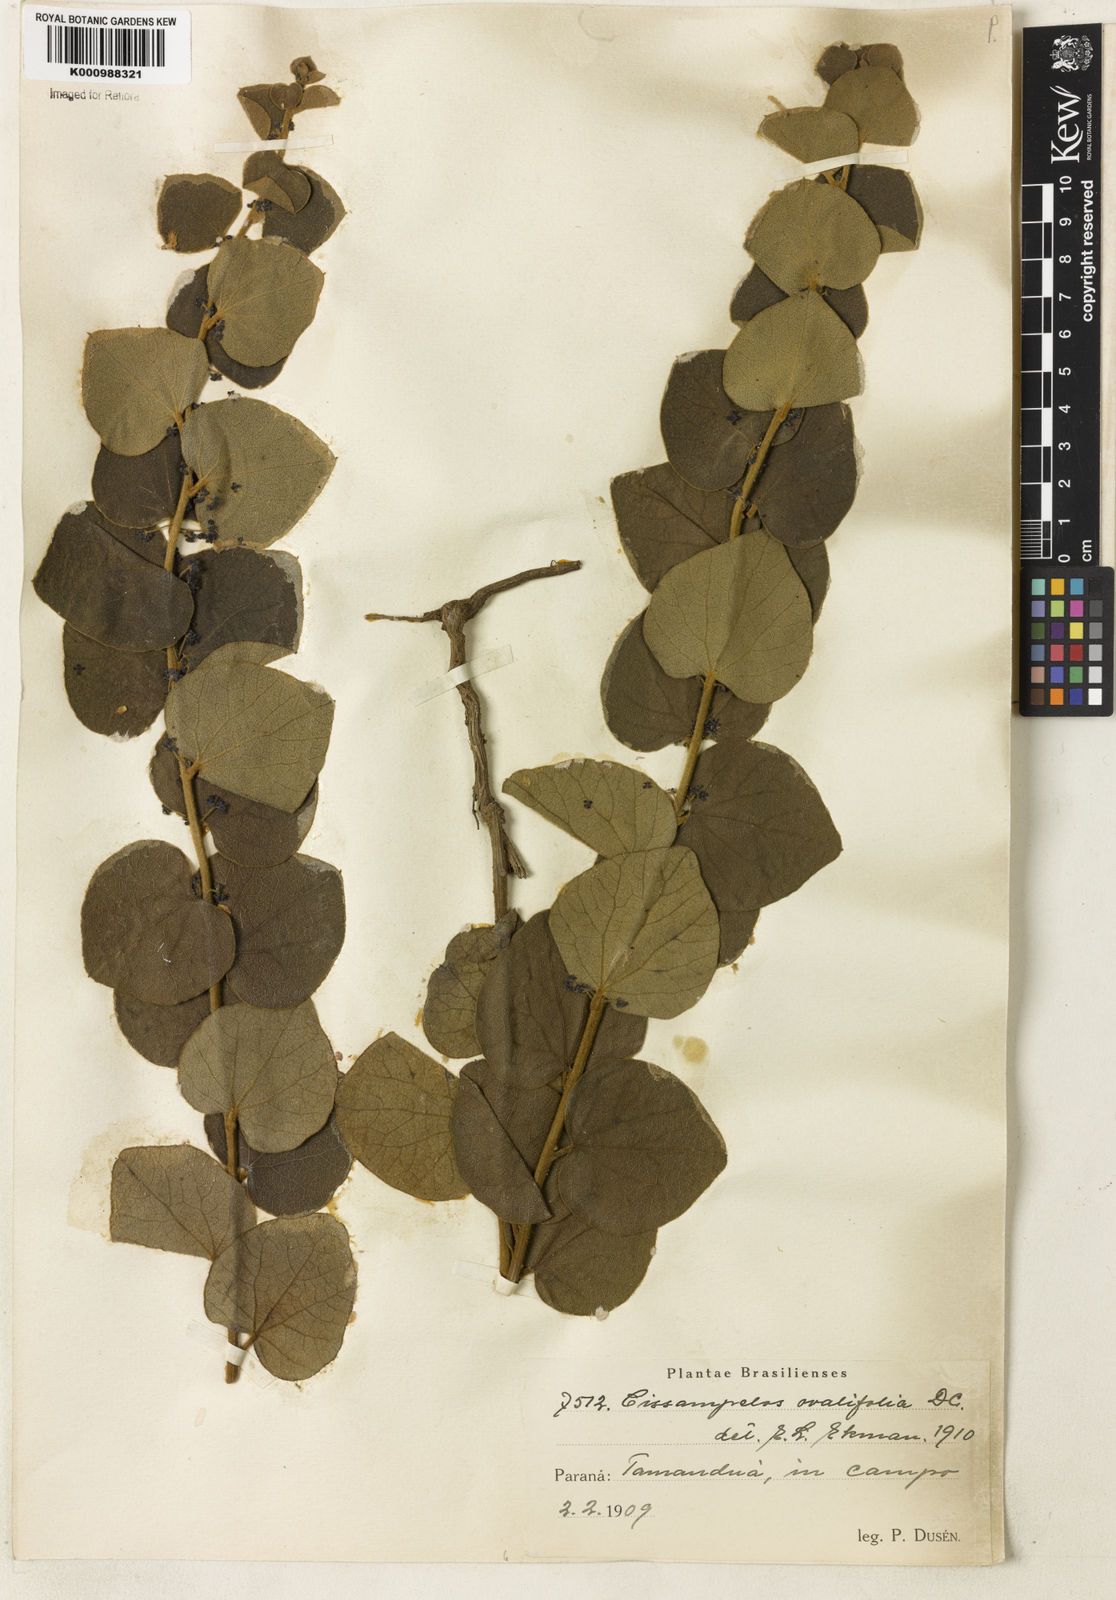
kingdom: Plantae
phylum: Tracheophyta
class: Magnoliopsida
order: Ranunculales
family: Menispermaceae
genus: Cissampelos
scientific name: Cissampelos ovalifolia
